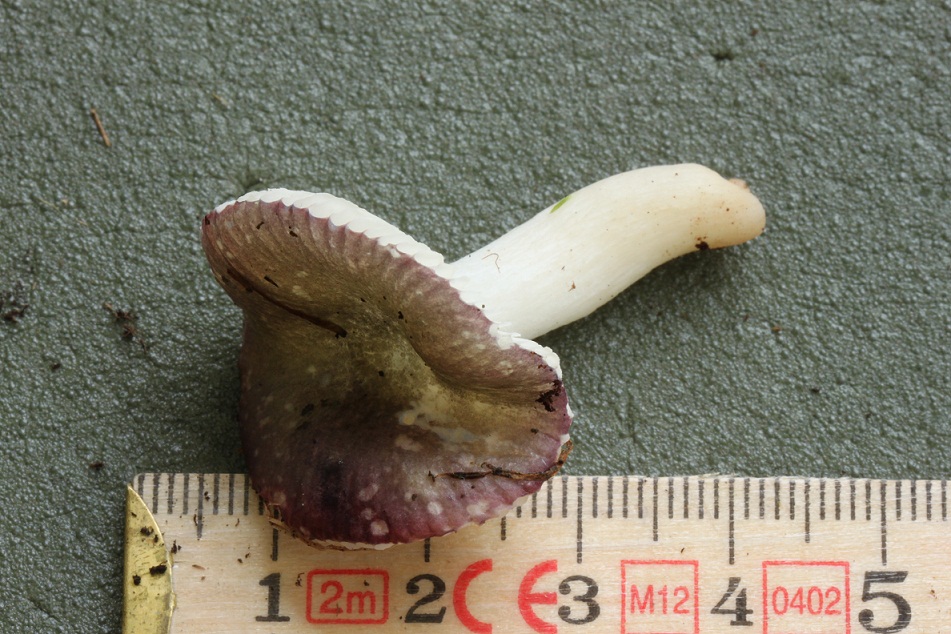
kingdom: Fungi
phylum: Basidiomycota
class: Agaricomycetes
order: Russulales
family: Russulaceae
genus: Russula
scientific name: Russula pelargonia
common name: pelargonie-skørhat
